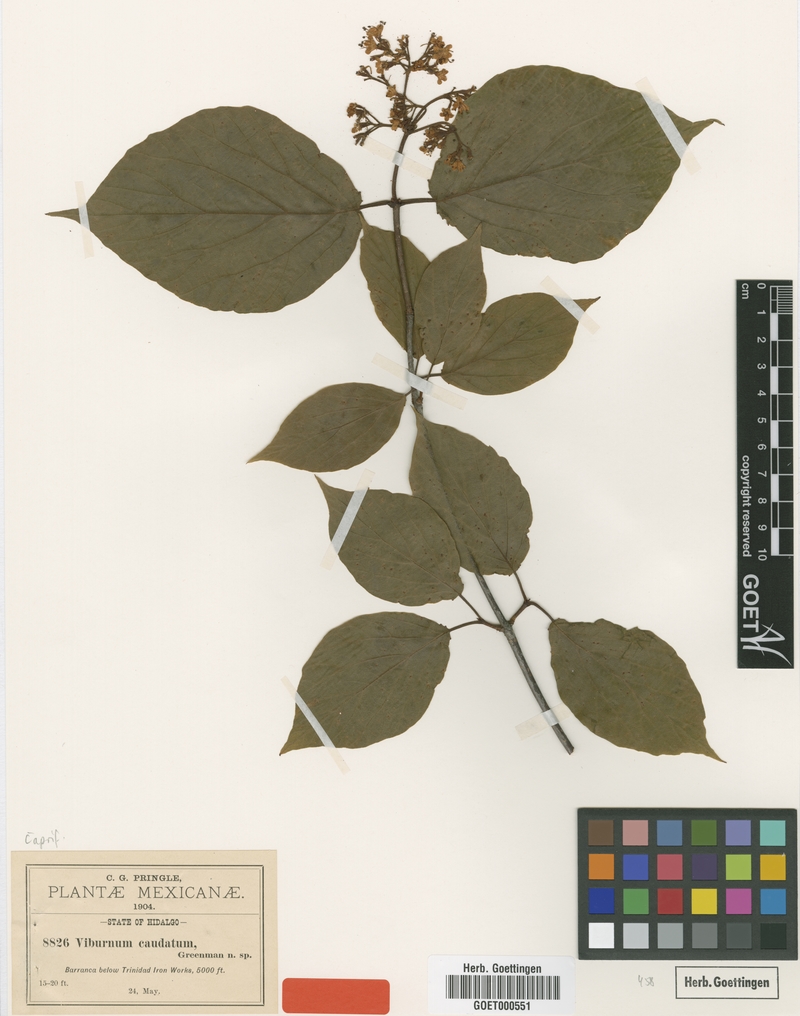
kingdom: Plantae
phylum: Tracheophyta
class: Magnoliopsida
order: Dipsacales
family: Viburnaceae
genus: Viburnum
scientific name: Viburnum caudatum
